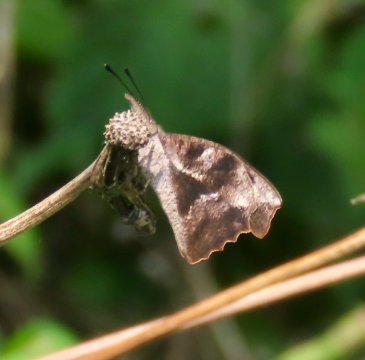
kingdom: Animalia
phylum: Arthropoda
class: Insecta
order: Lepidoptera
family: Nymphalidae
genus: Libytheana
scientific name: Libytheana carinenta
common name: American Snout
